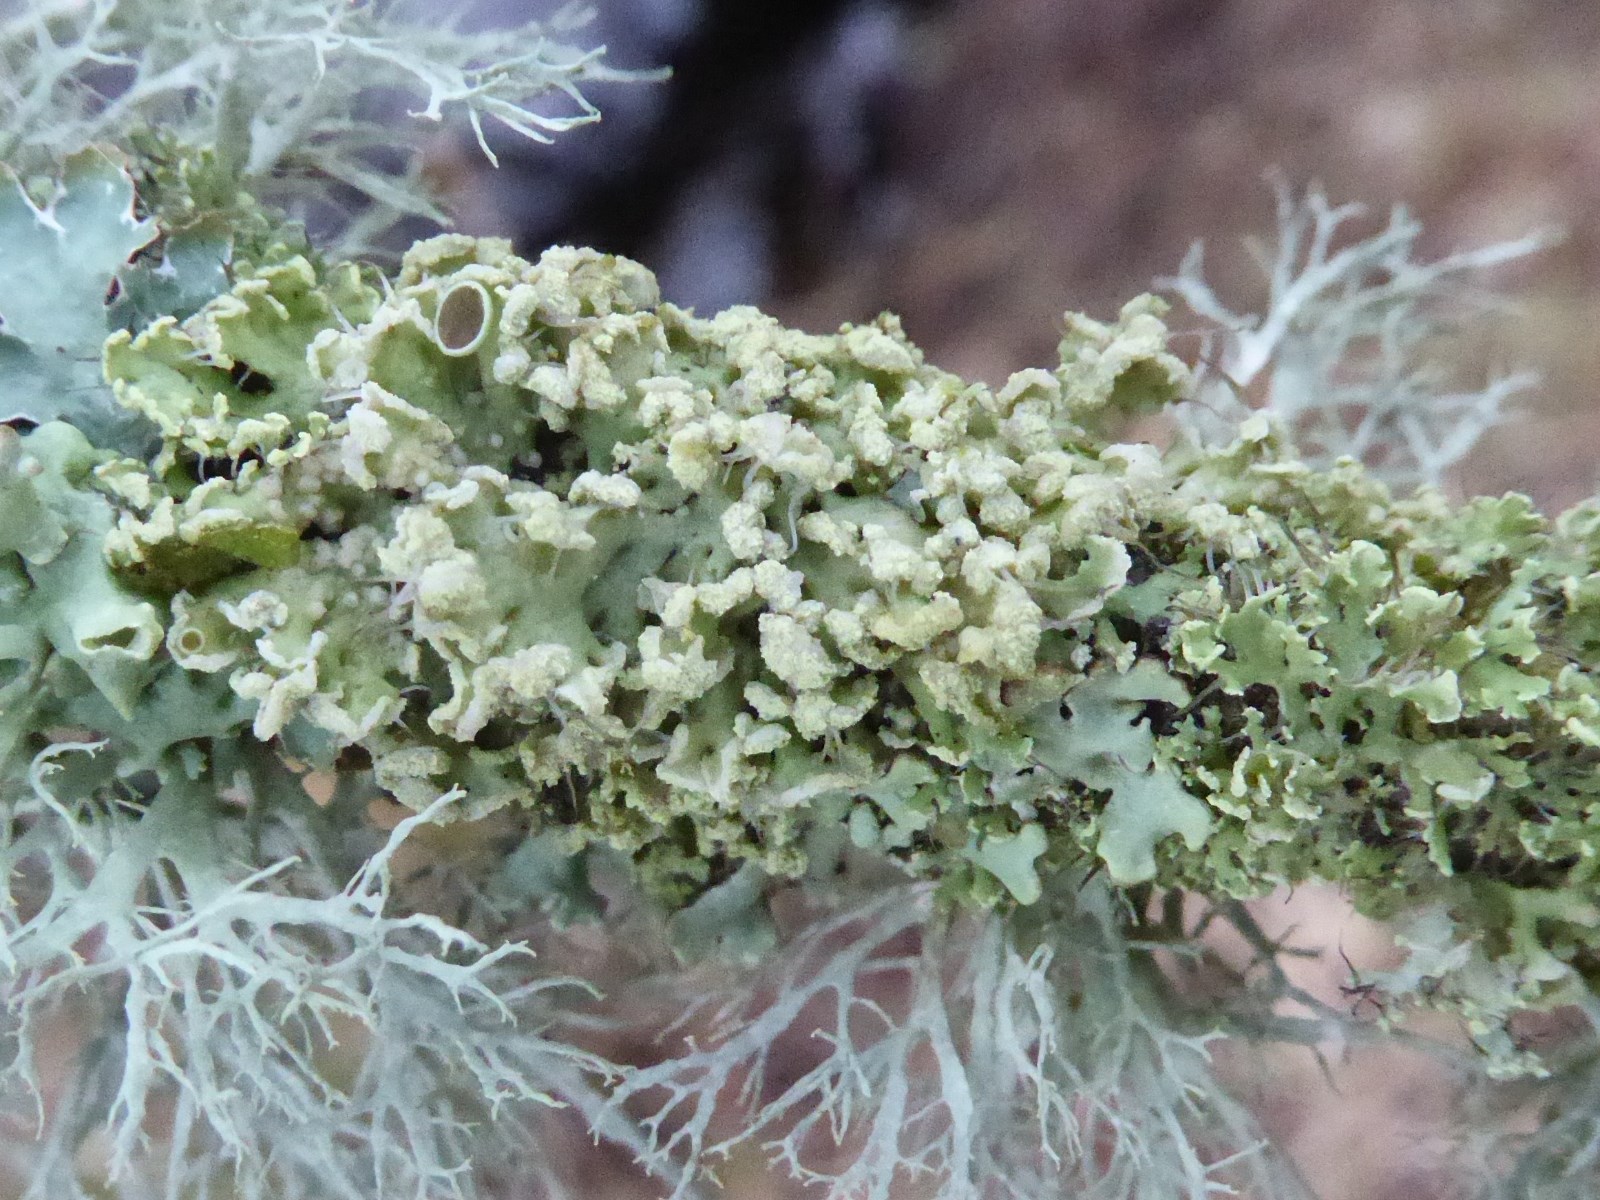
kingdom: Fungi
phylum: Ascomycota
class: Lecanoromycetes
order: Caliciales
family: Physciaceae
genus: Physcia
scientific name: Physcia tenella
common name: spæd rosetlav
